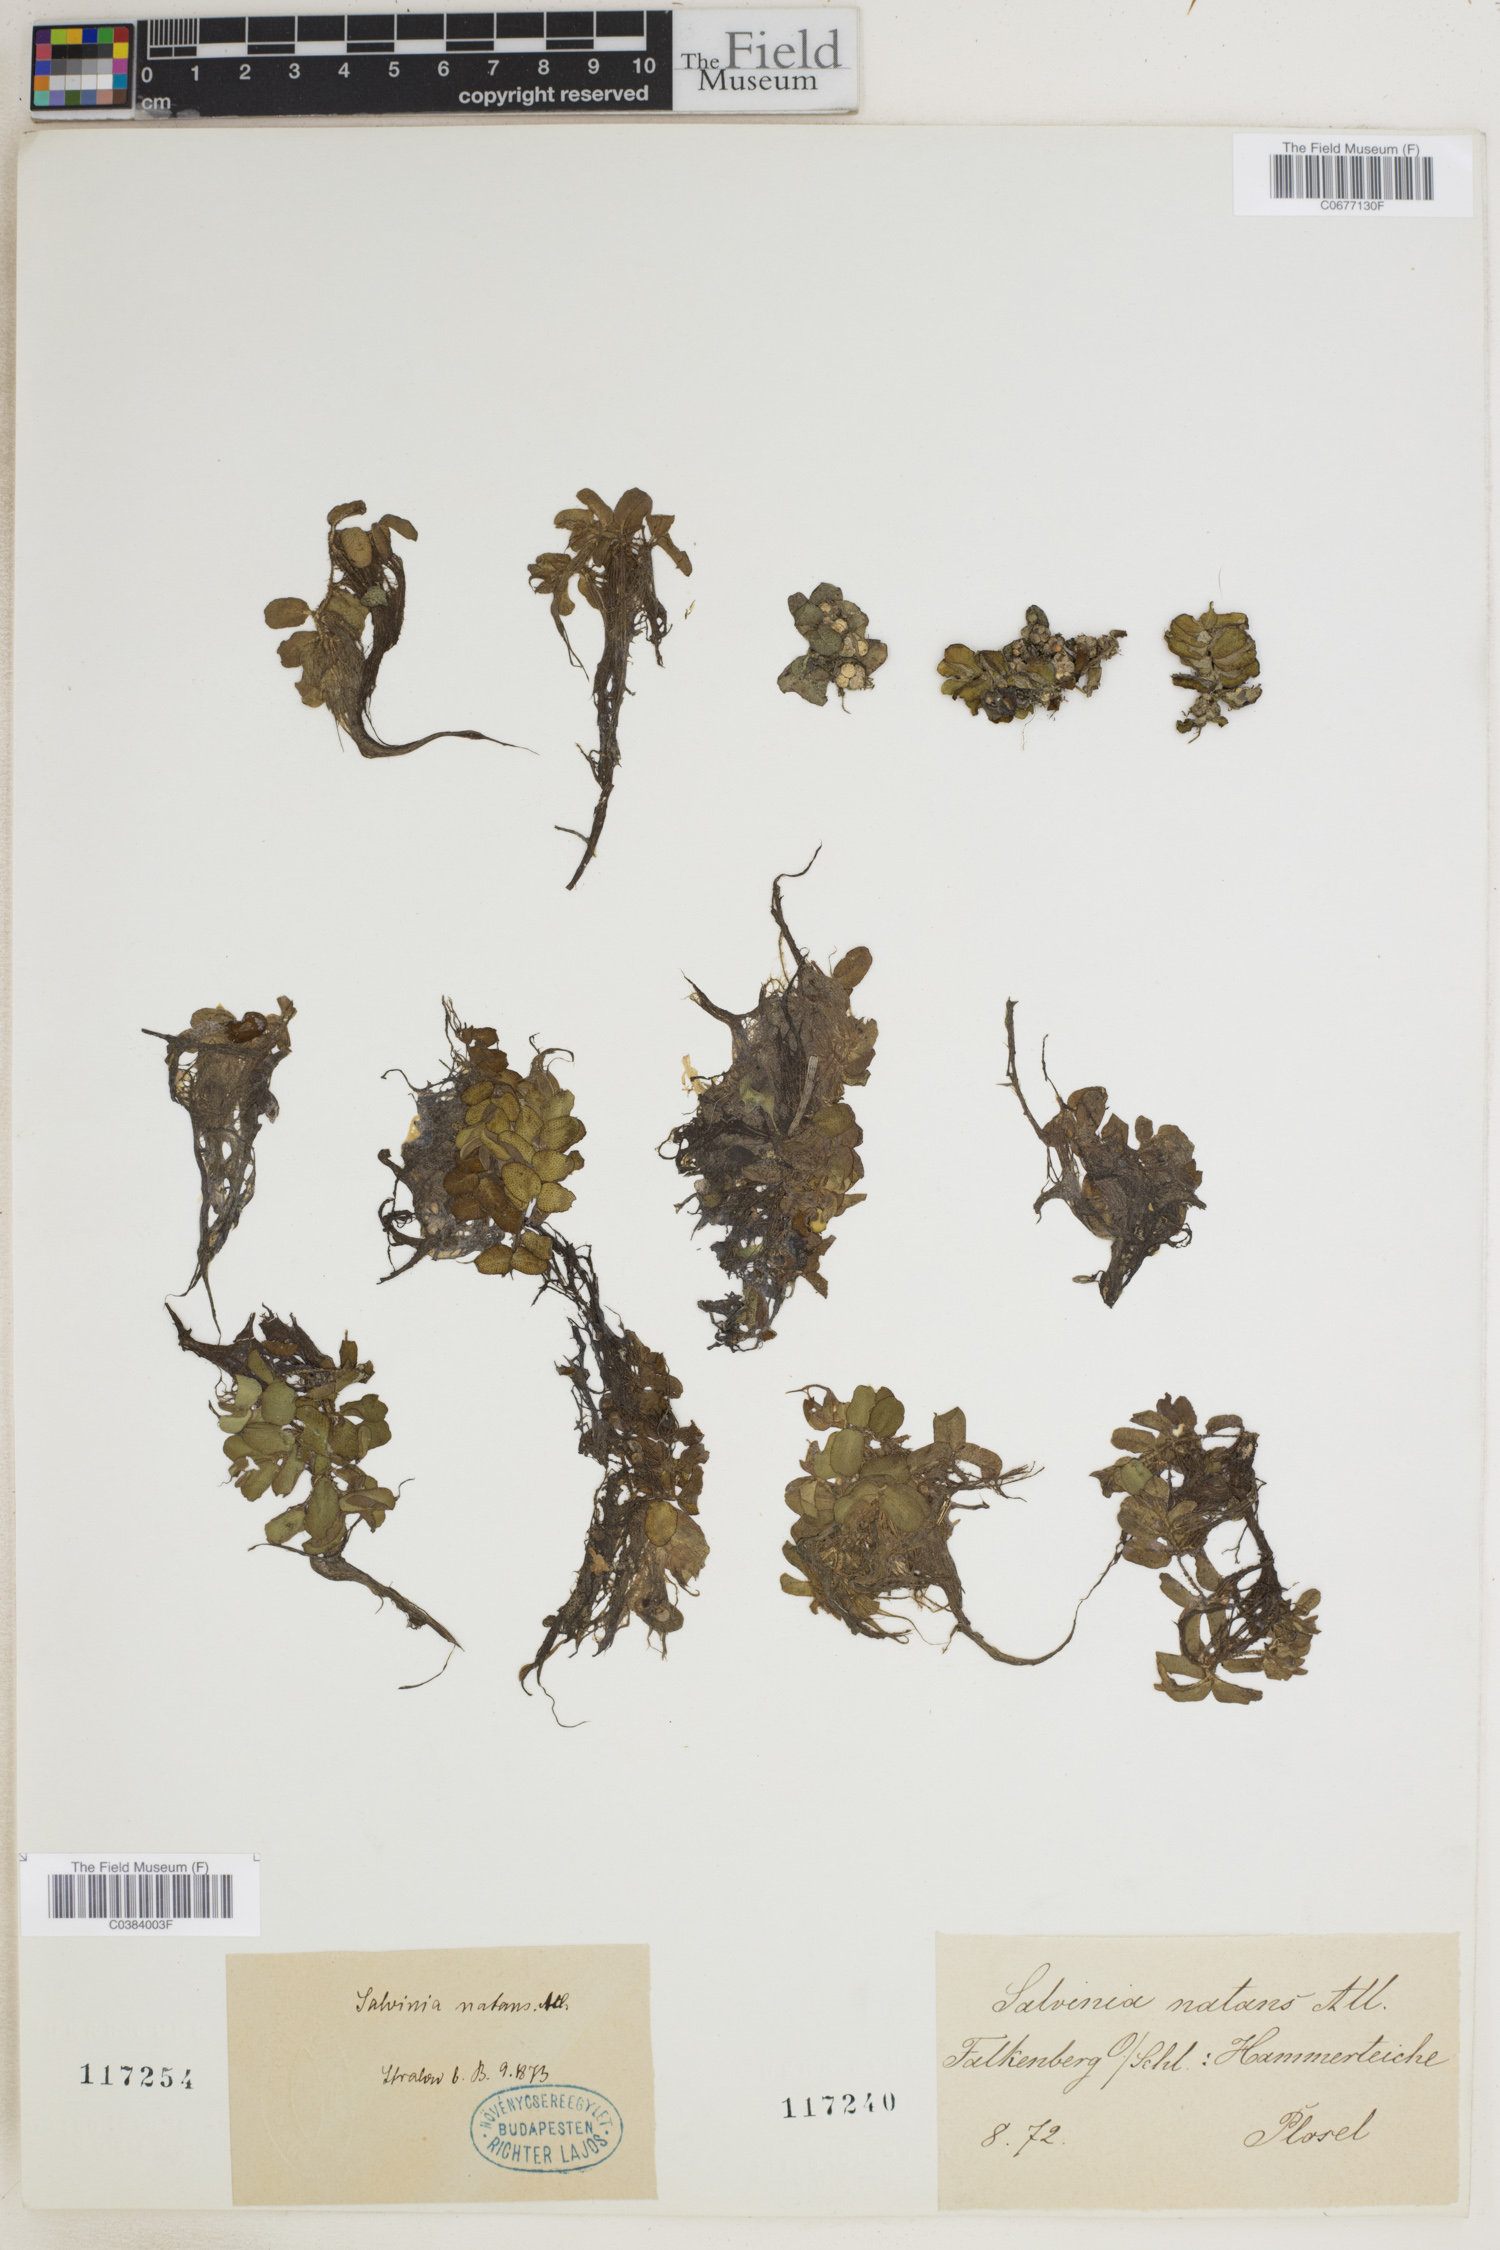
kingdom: Plantae
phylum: Tracheophyta
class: Polypodiopsida
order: Salviniales
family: Salviniaceae
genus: Salvinia
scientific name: Salvinia natans
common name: Floating fern
